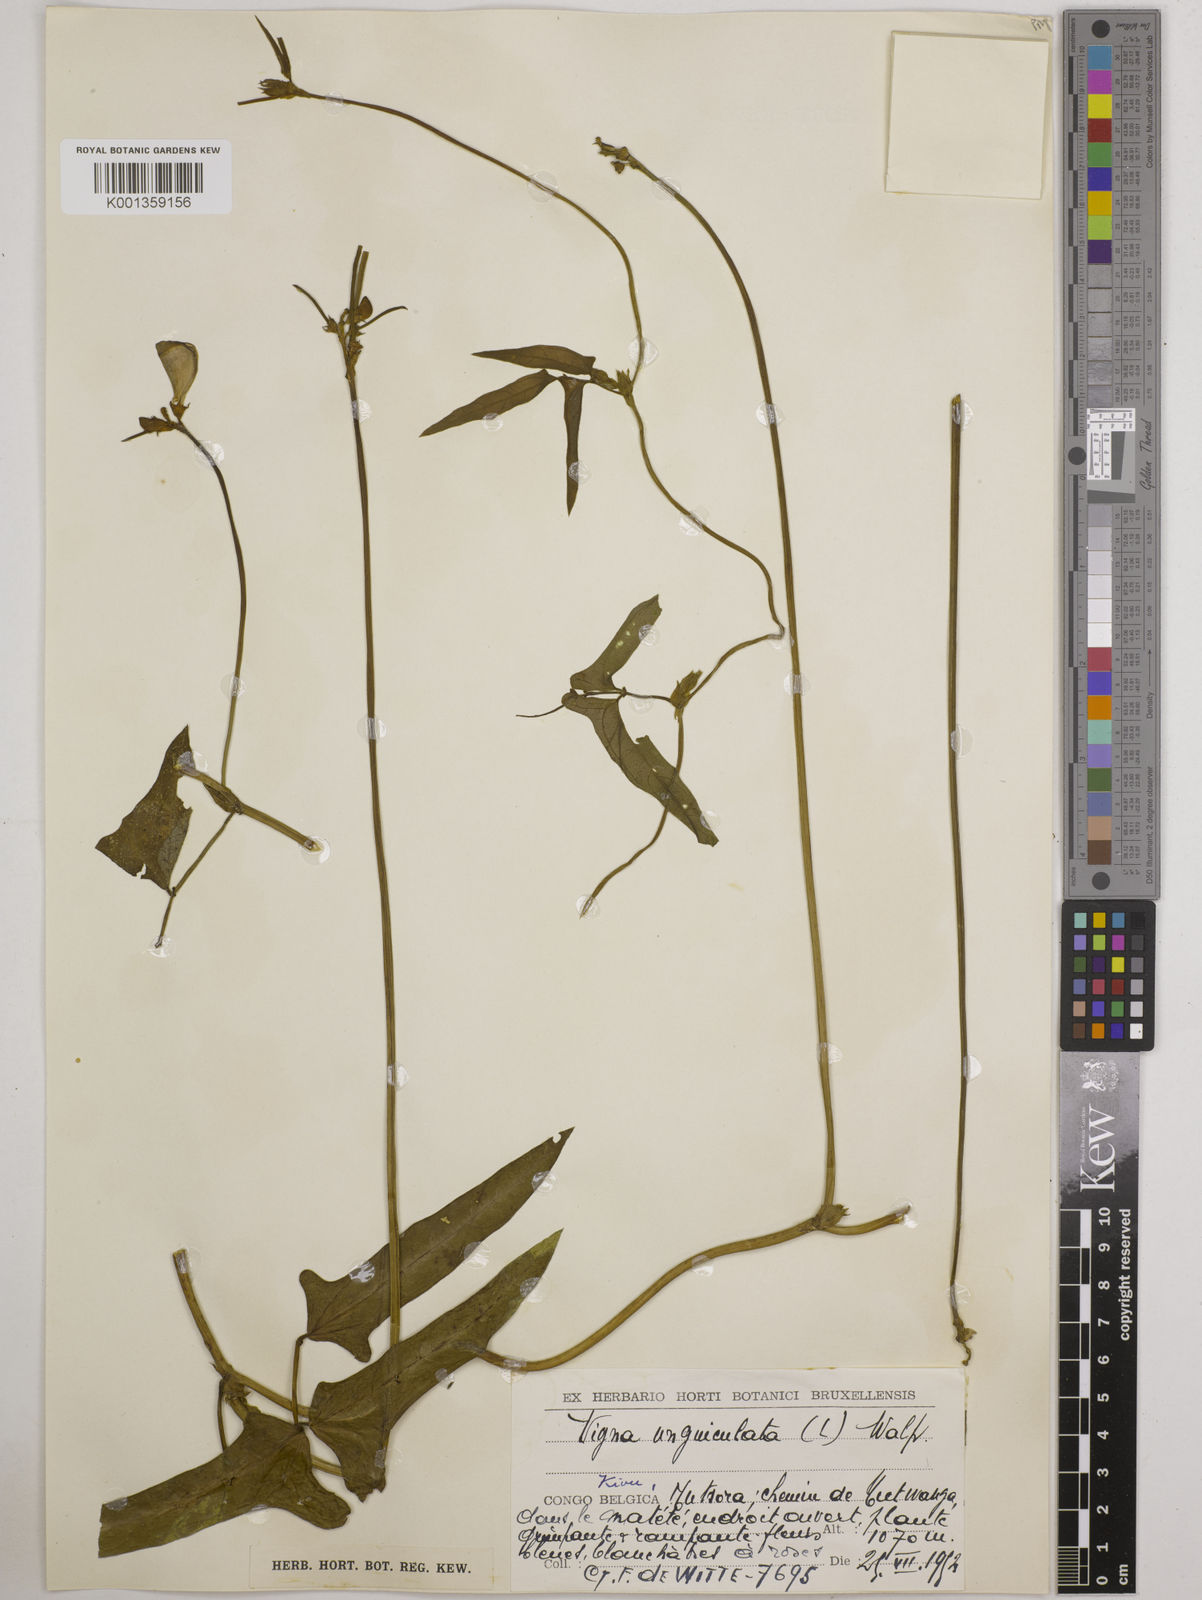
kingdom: Plantae
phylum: Tracheophyta
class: Magnoliopsida
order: Fabales
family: Fabaceae
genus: Vigna
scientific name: Vigna
